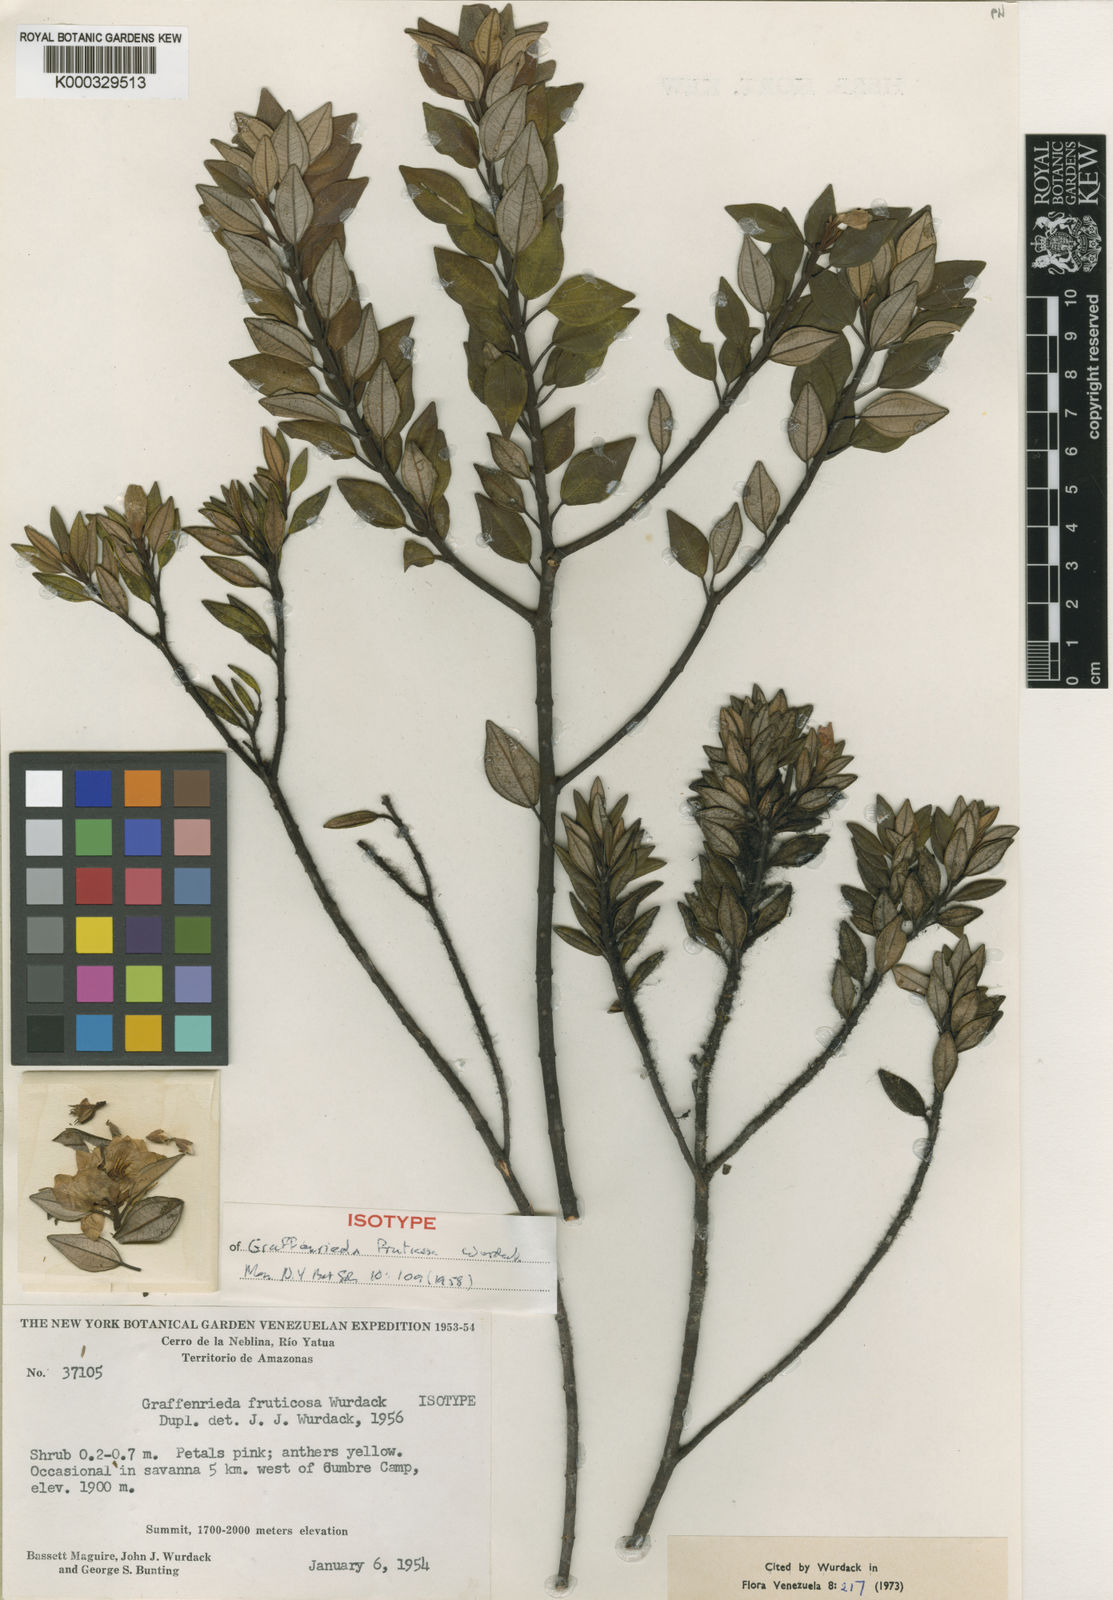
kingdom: Plantae
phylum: Tracheophyta
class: Magnoliopsida
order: Myrtales
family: Melastomataceae
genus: Graffenrieda
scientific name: Graffenrieda fruticosa
